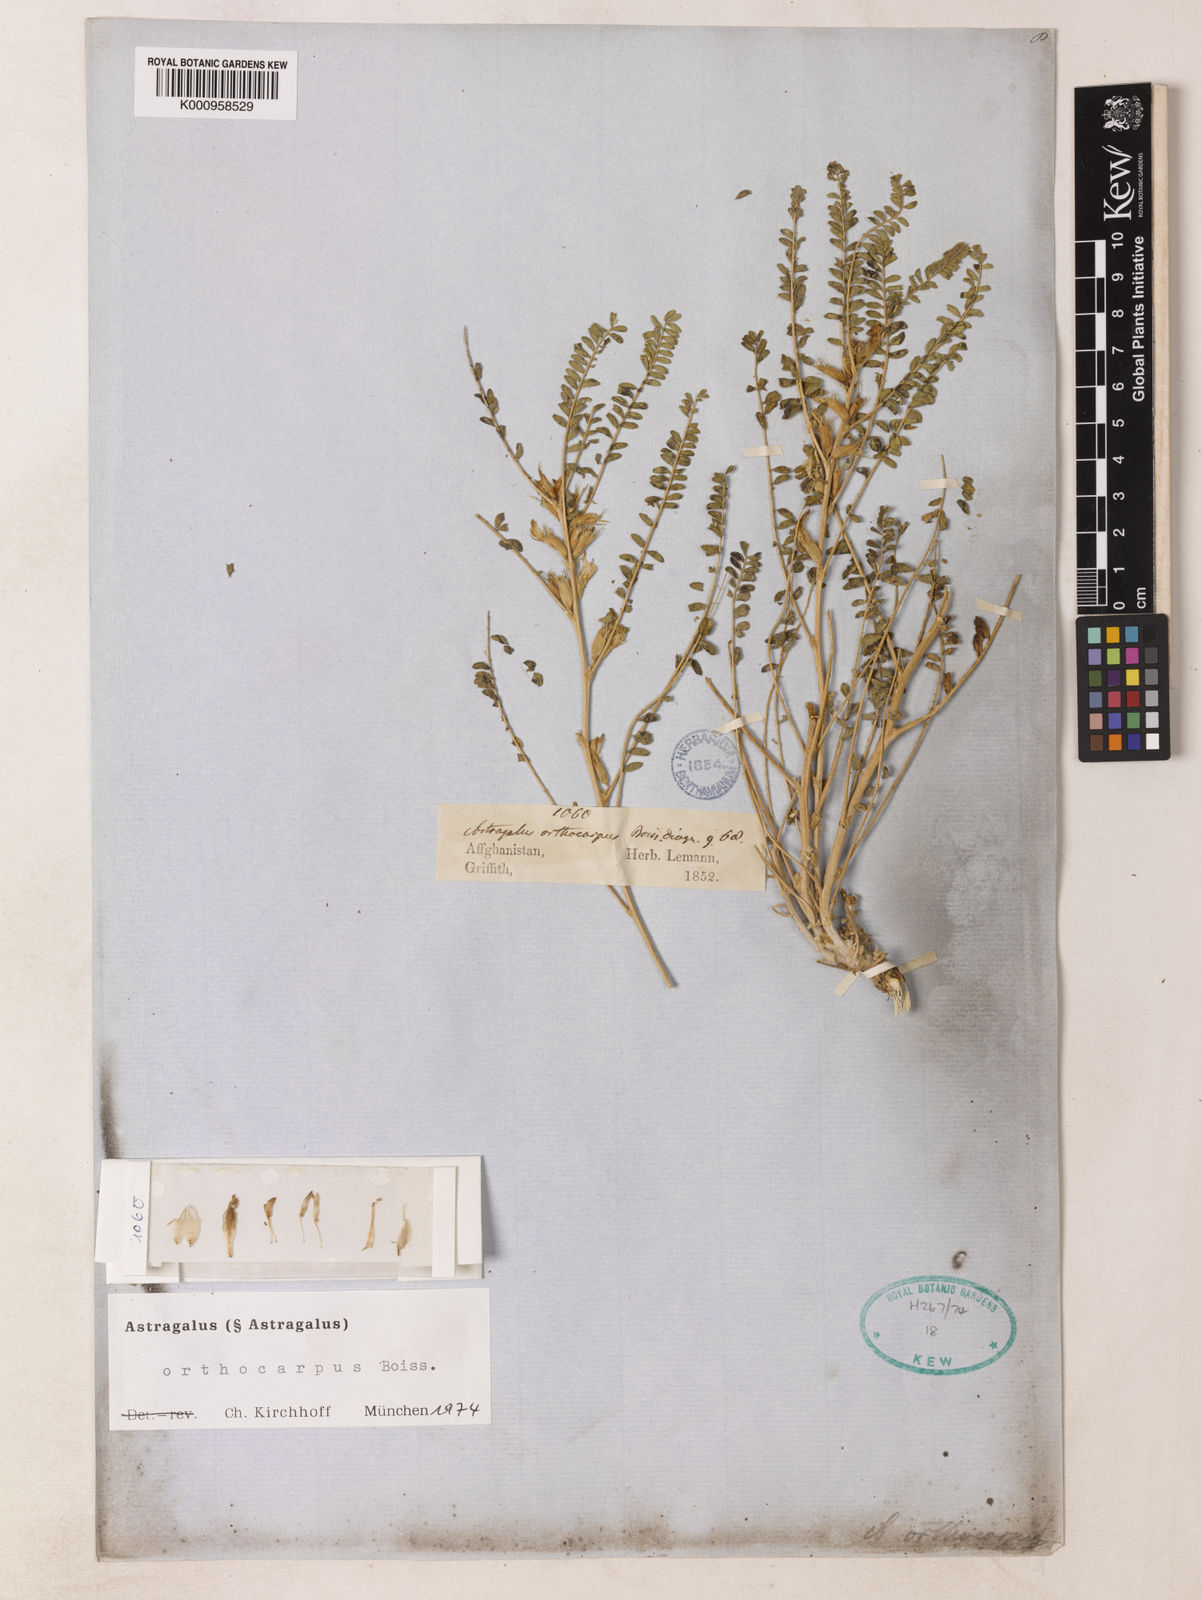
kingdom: Plantae
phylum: Tracheophyta
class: Magnoliopsida
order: Fabales
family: Fabaceae
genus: Astragalus
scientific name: Astragalus
